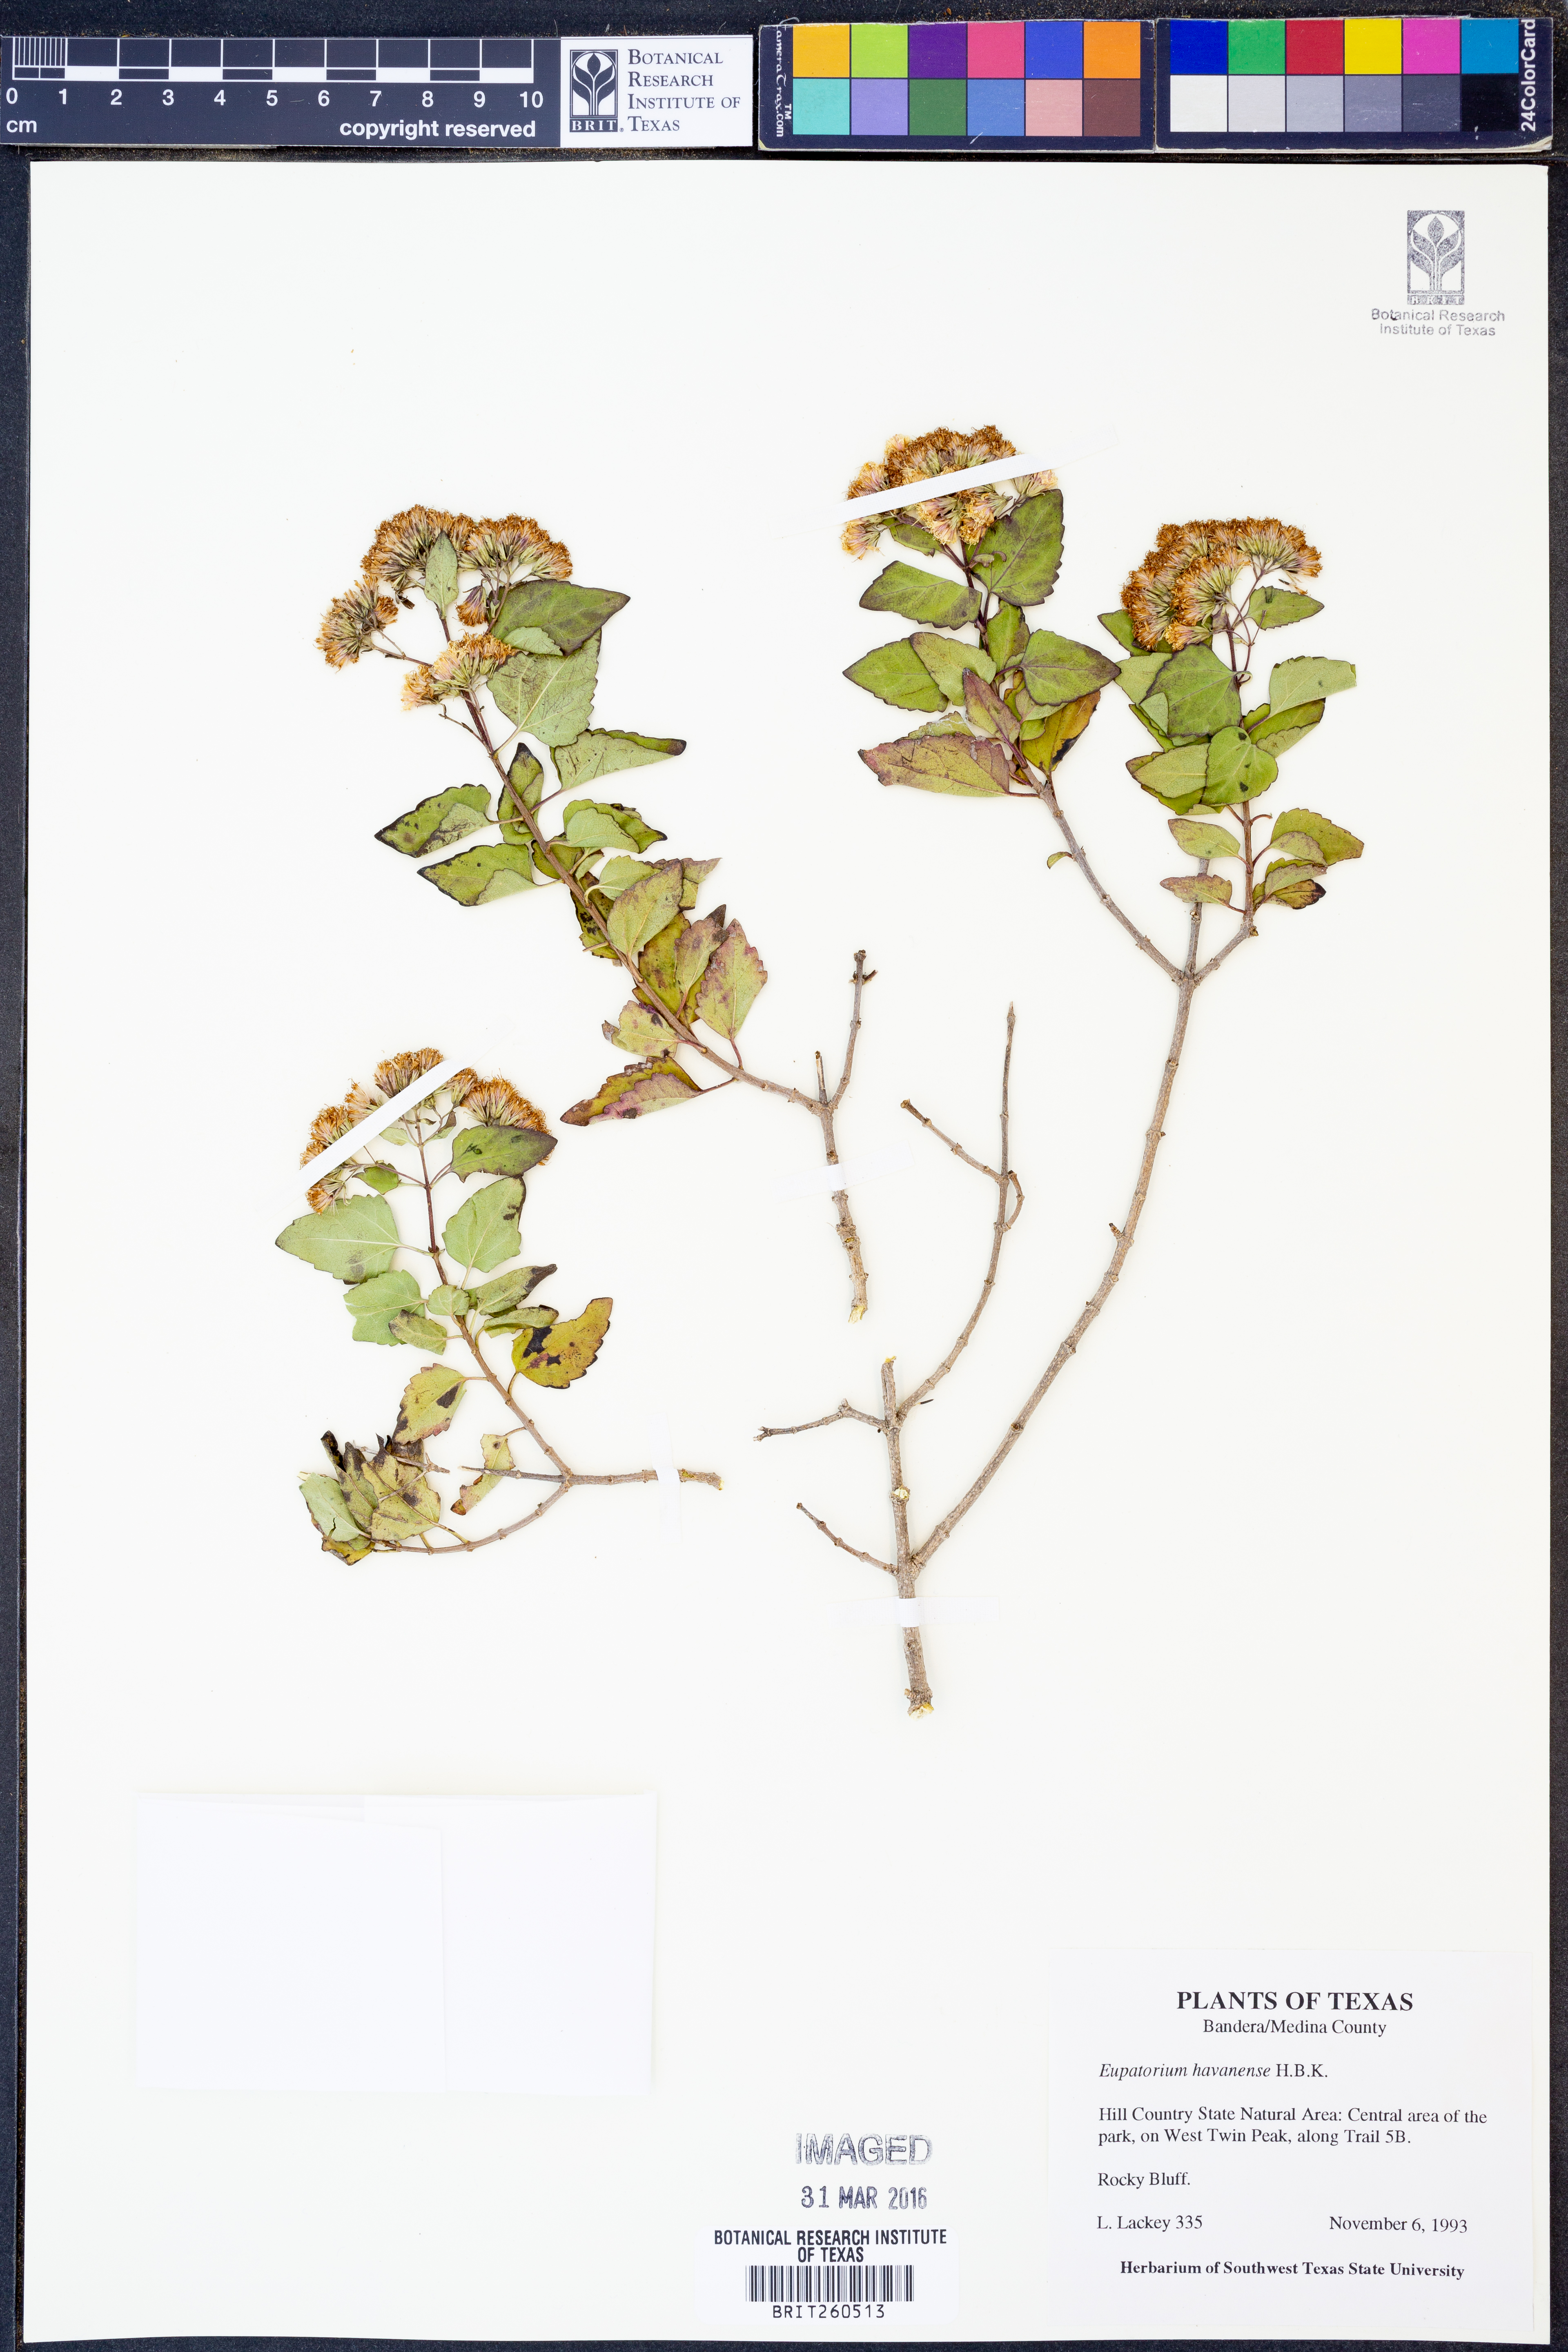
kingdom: Plantae
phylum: Tracheophyta
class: Magnoliopsida
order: Asterales
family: Asteraceae
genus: Ageratina
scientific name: Ageratina havanensis
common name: Havana snakeroot
